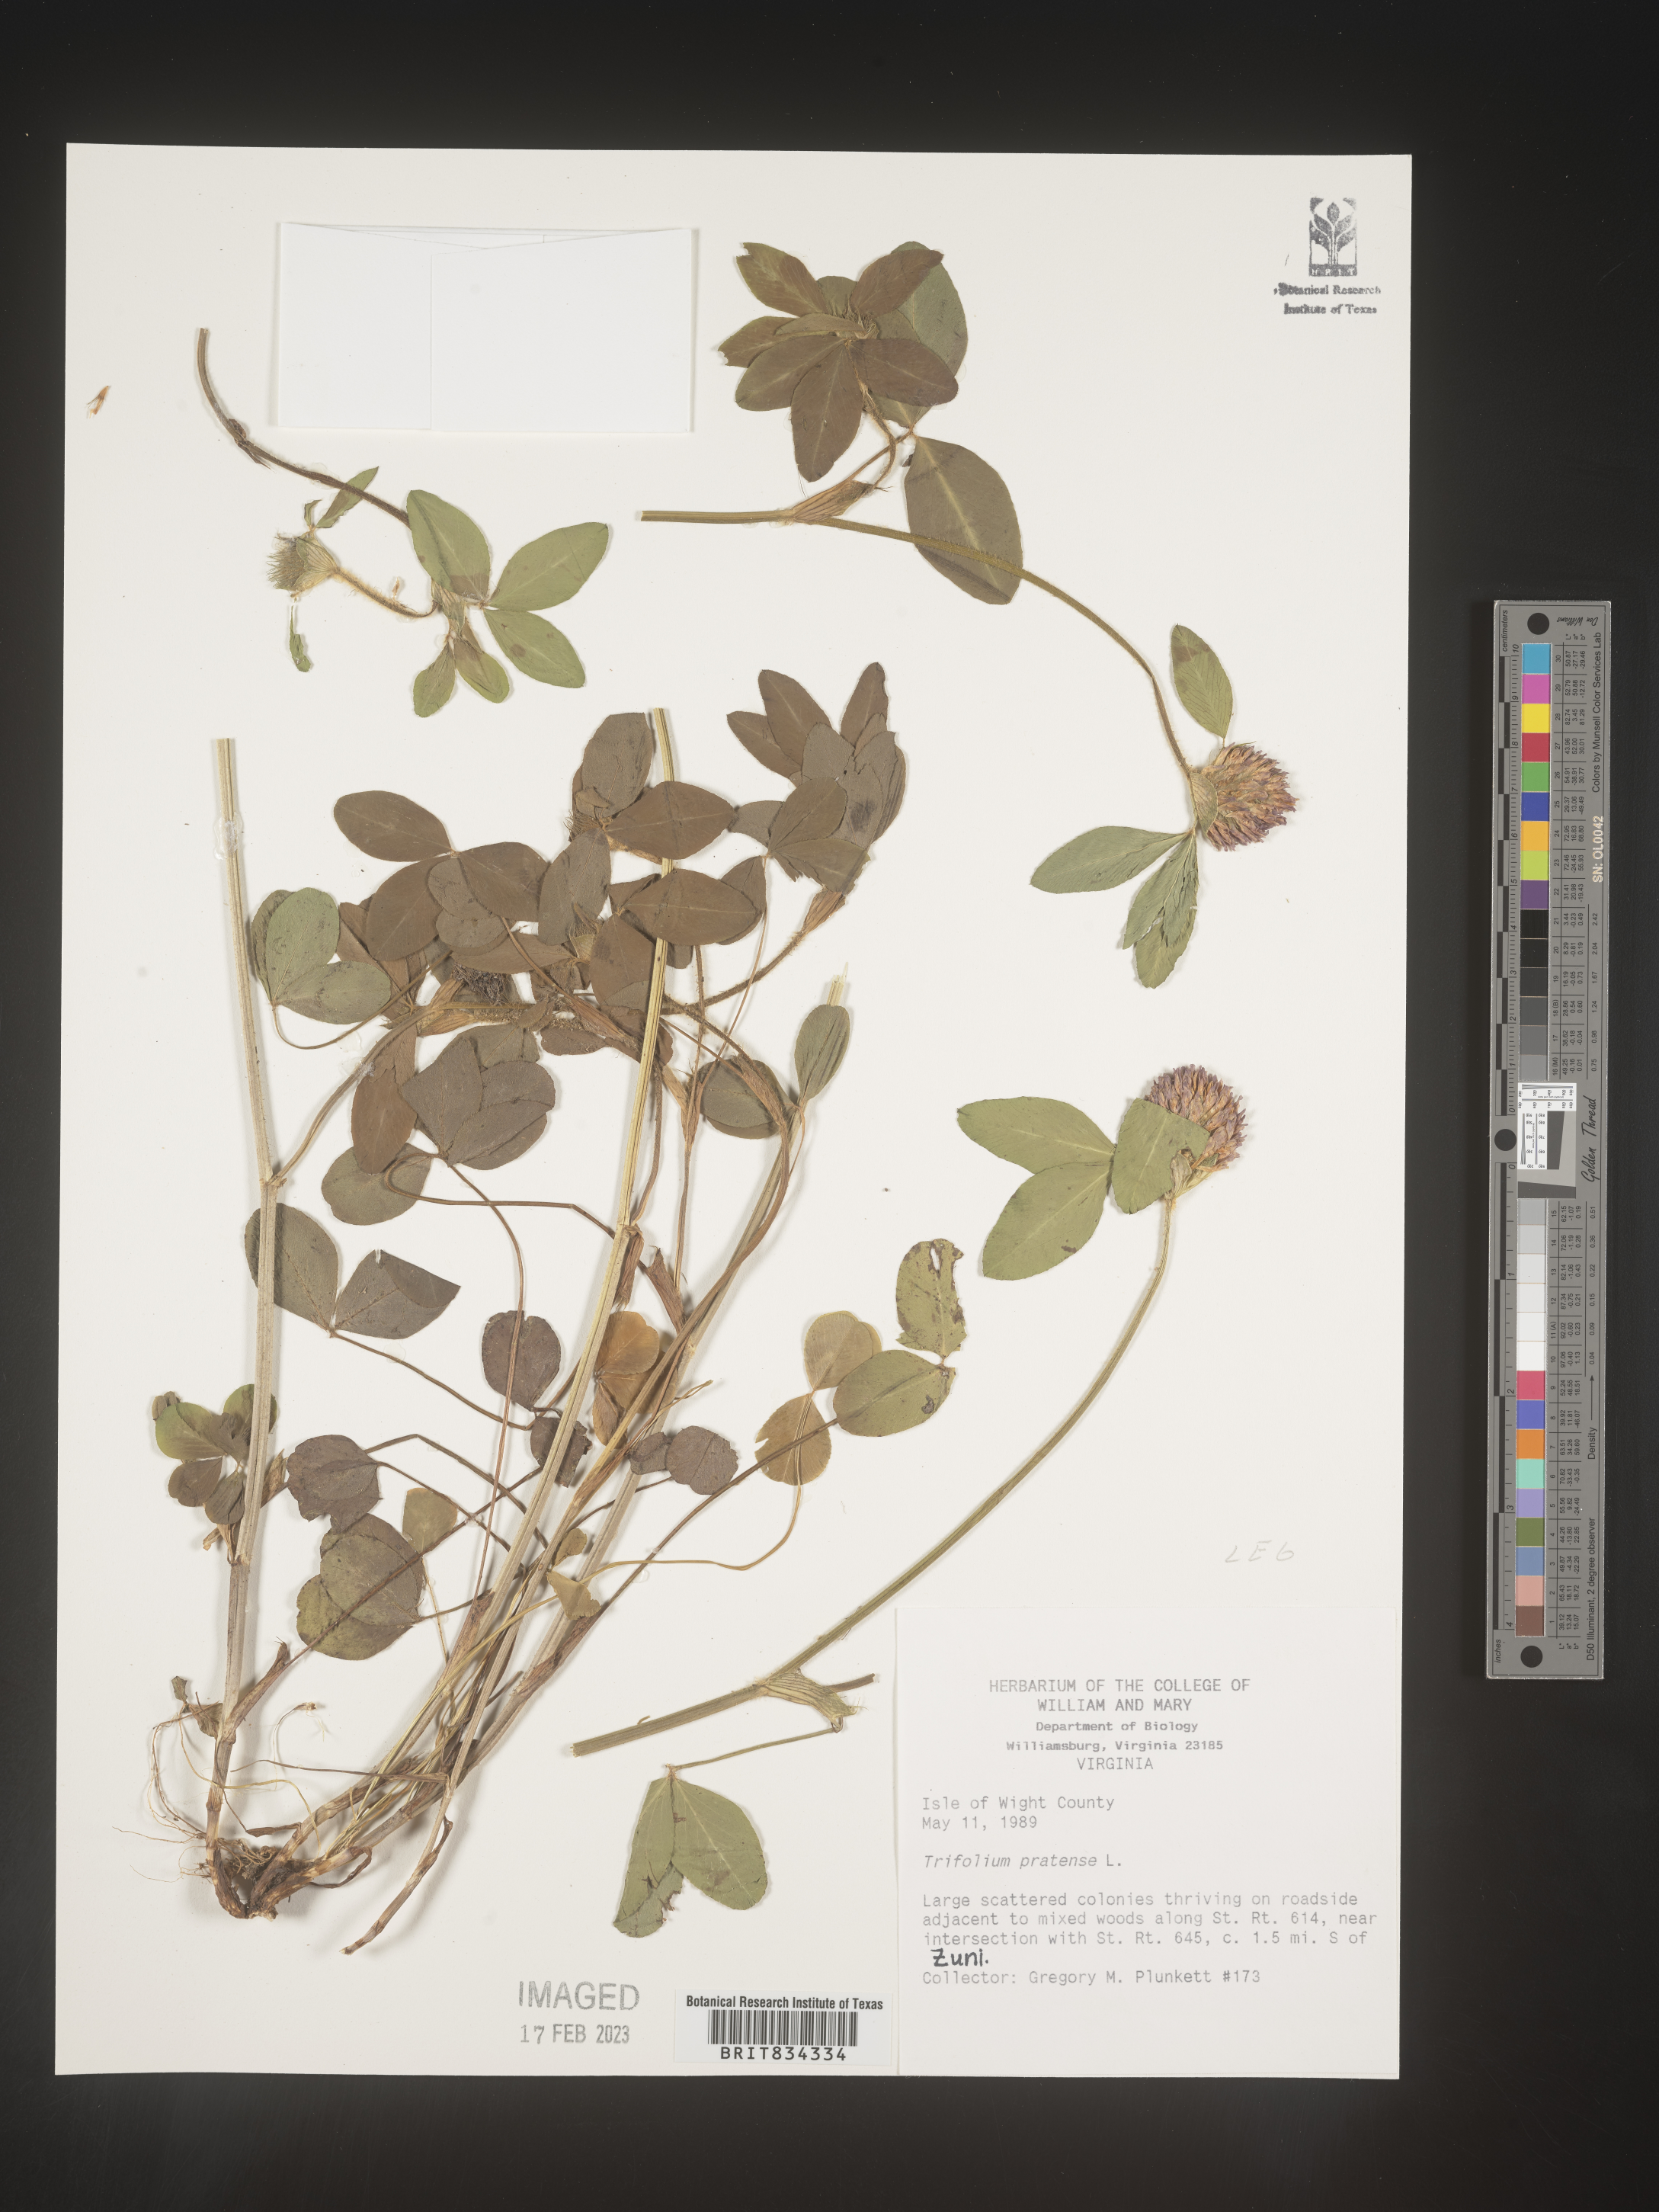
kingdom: Plantae
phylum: Tracheophyta
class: Magnoliopsida
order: Fabales
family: Fabaceae
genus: Trifolium
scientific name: Trifolium pratense
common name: Red clover
